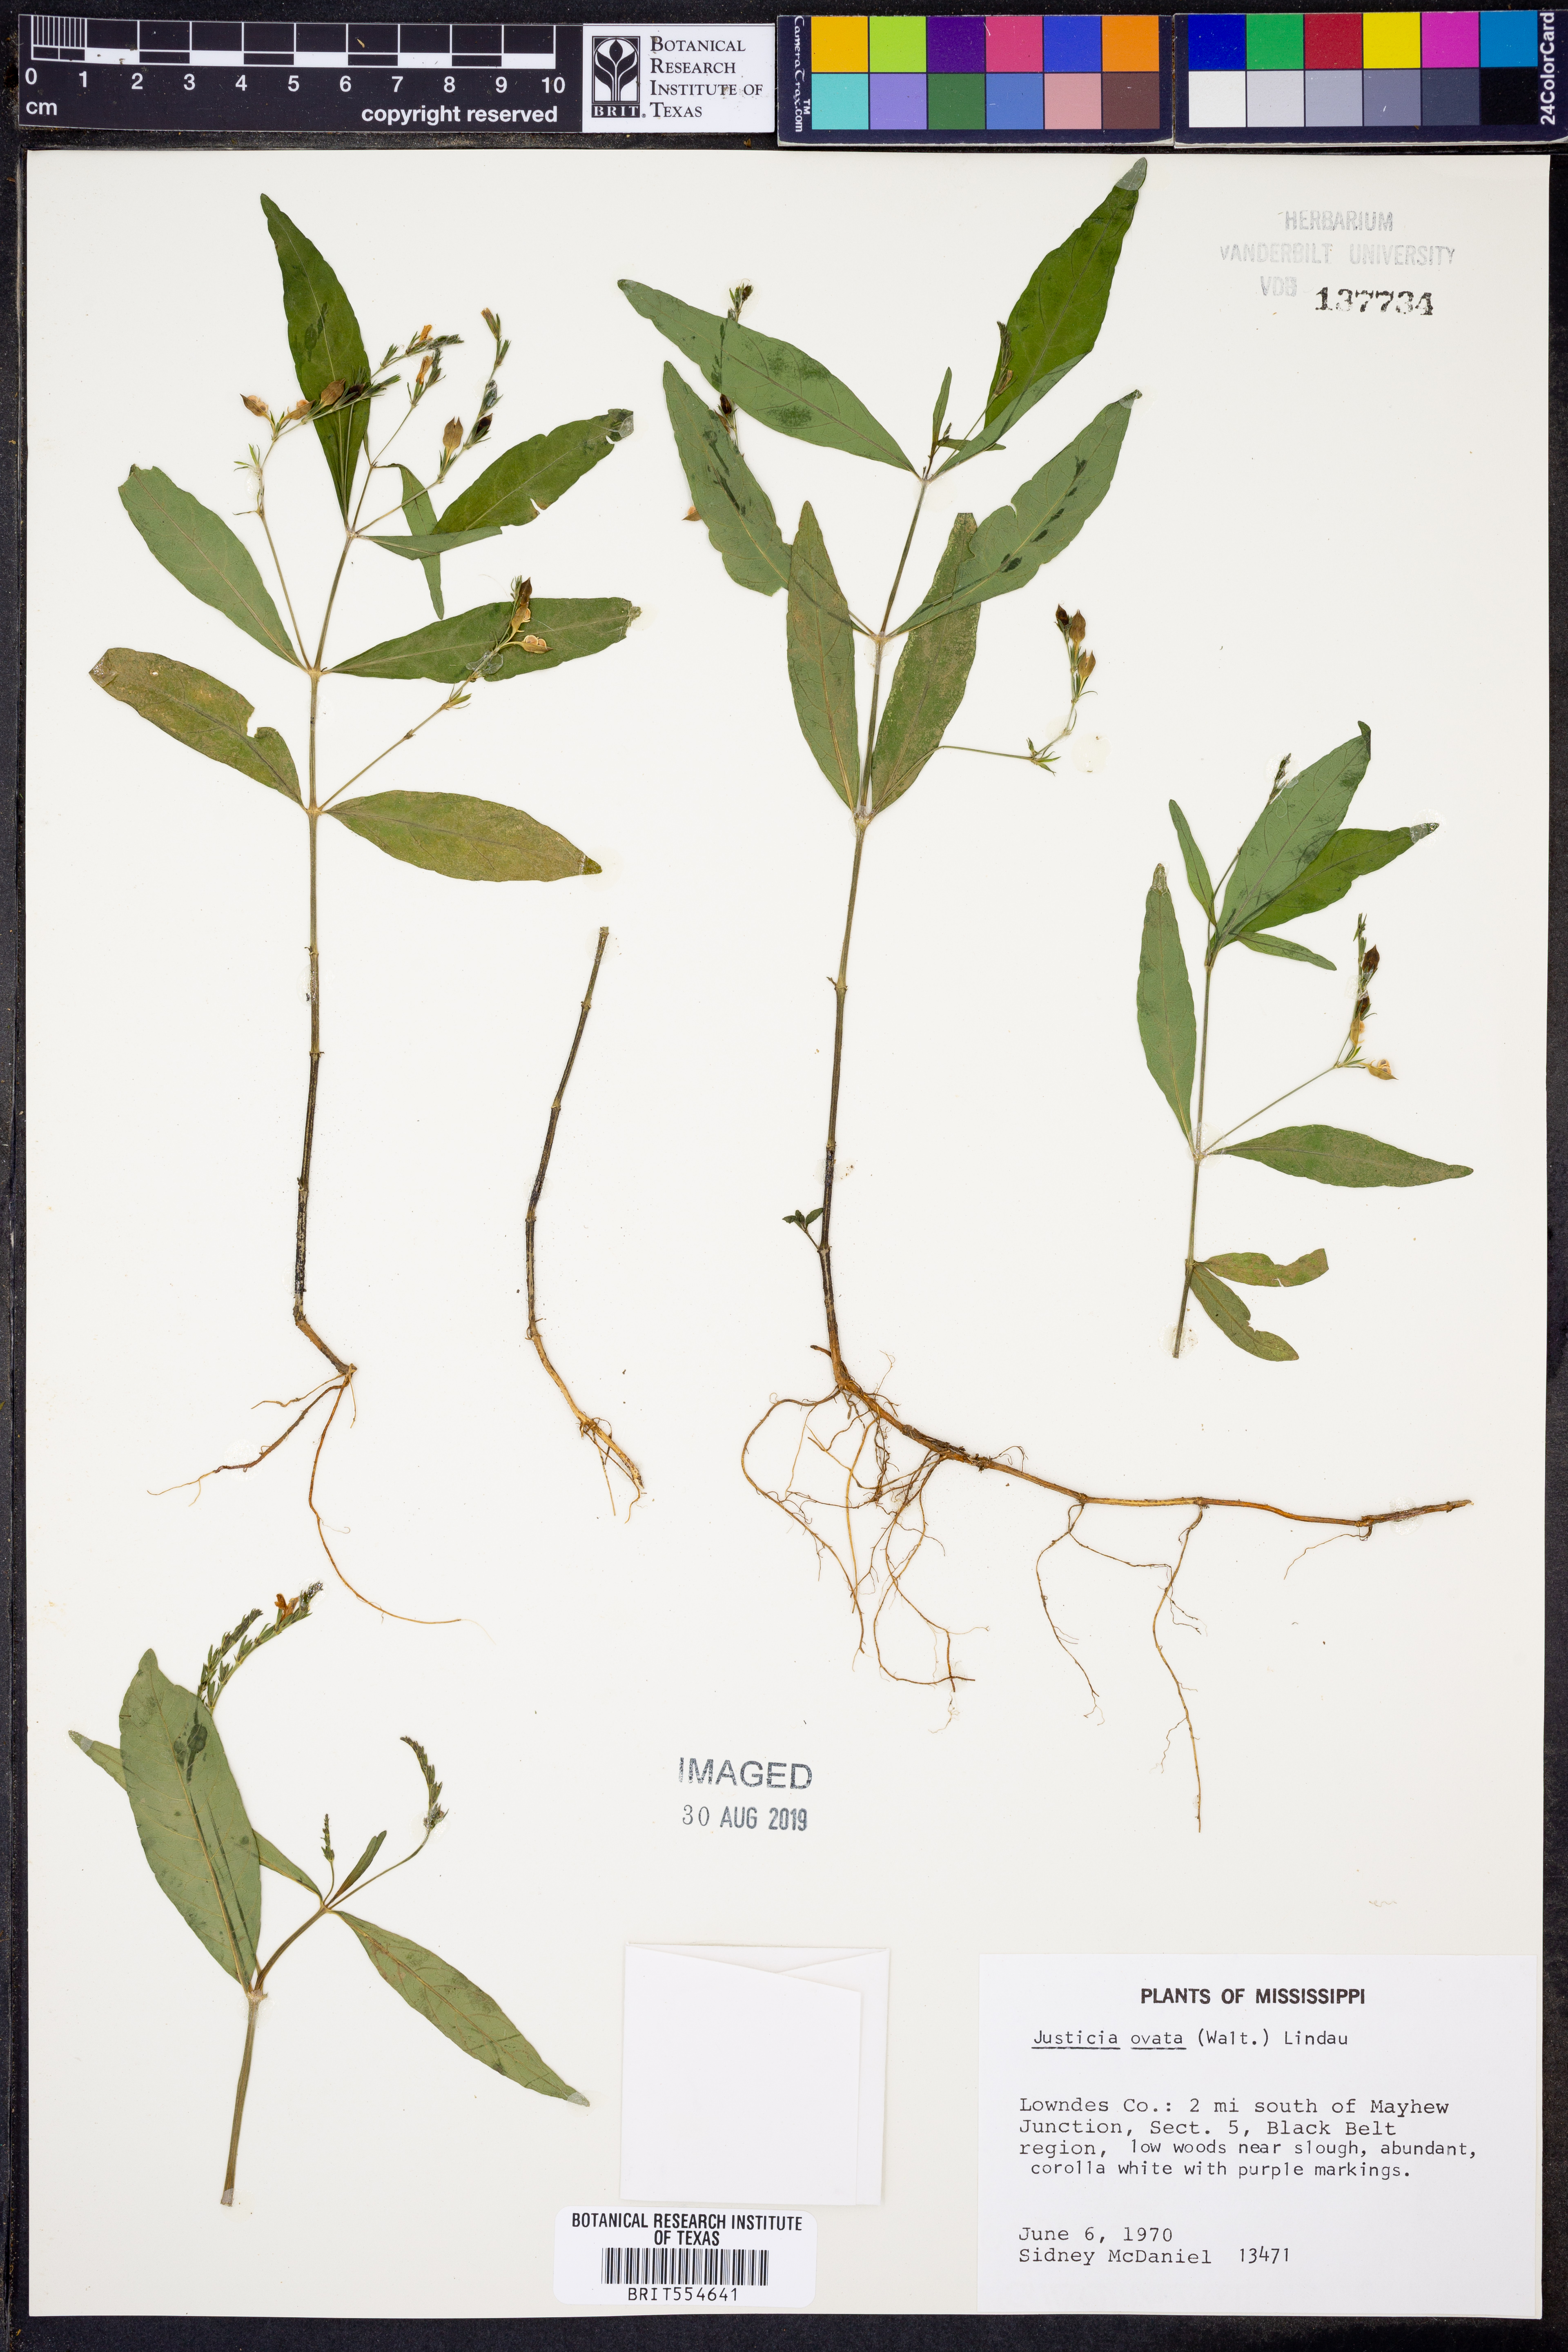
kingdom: Plantae
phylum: Tracheophyta
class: Magnoliopsida
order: Lamiales
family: Acanthaceae
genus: Dianthera
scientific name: Dianthera ovata
